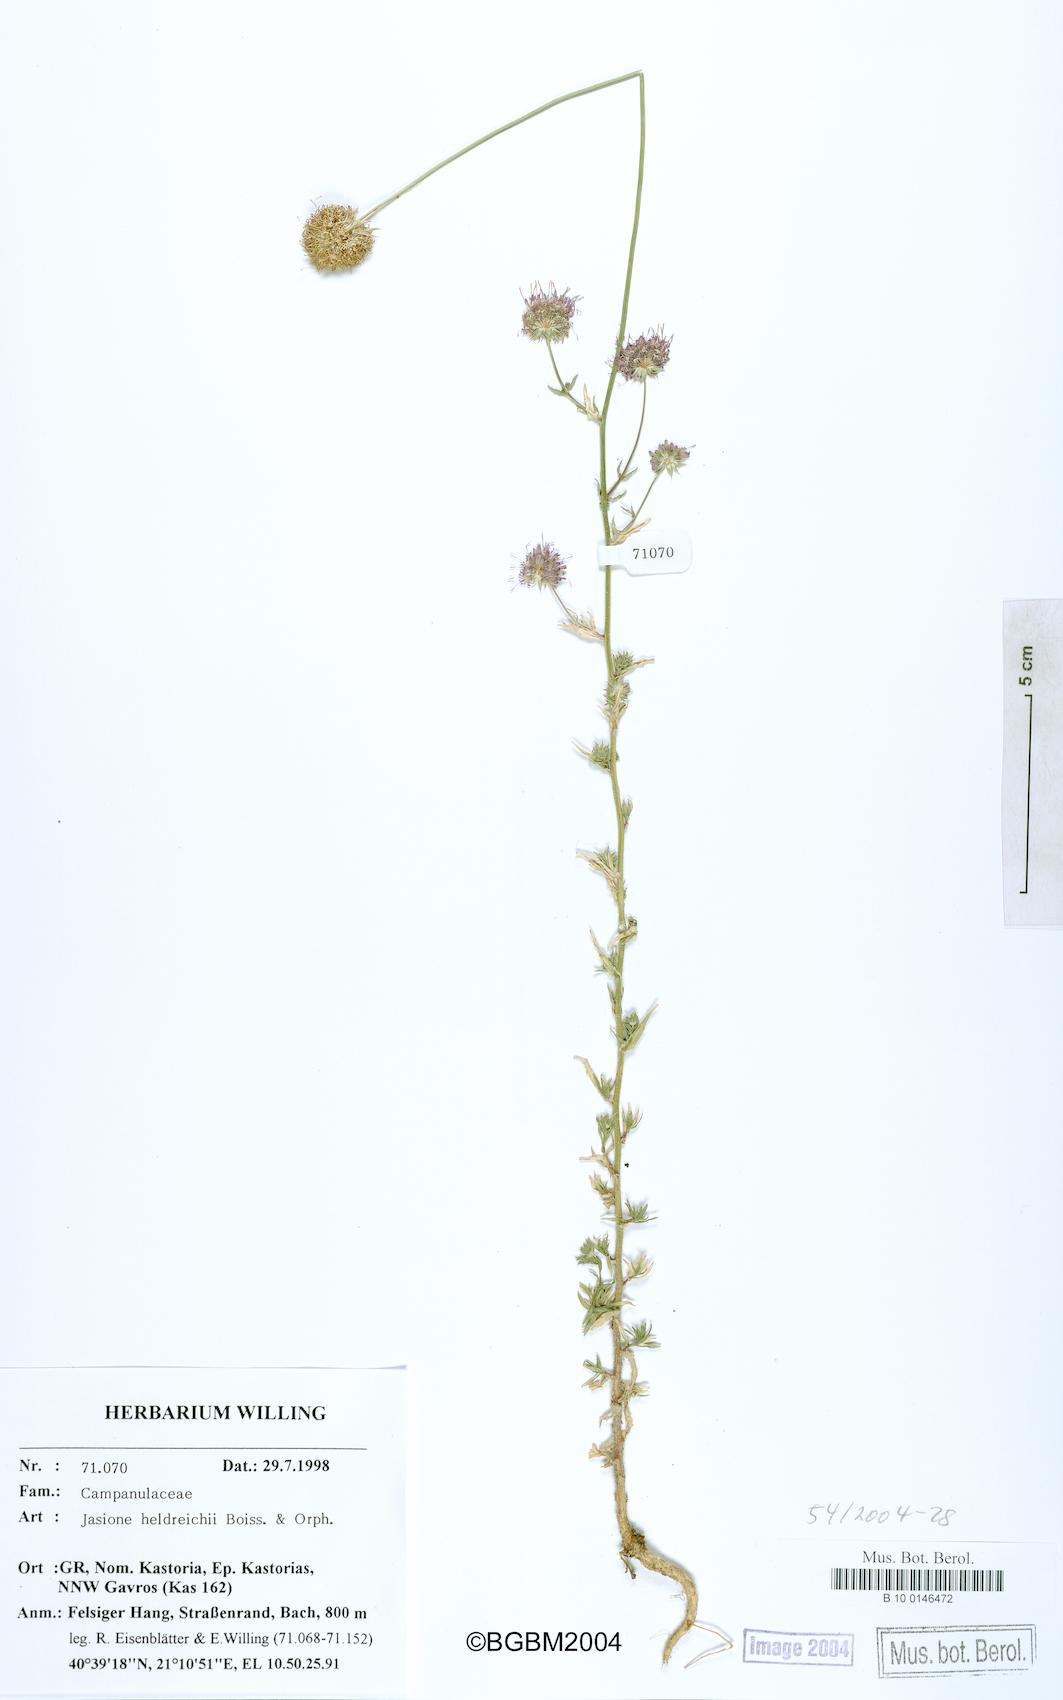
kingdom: Plantae
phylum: Tracheophyta
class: Magnoliopsida
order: Asterales
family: Campanulaceae
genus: Jasione
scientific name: Jasione heldreichii
